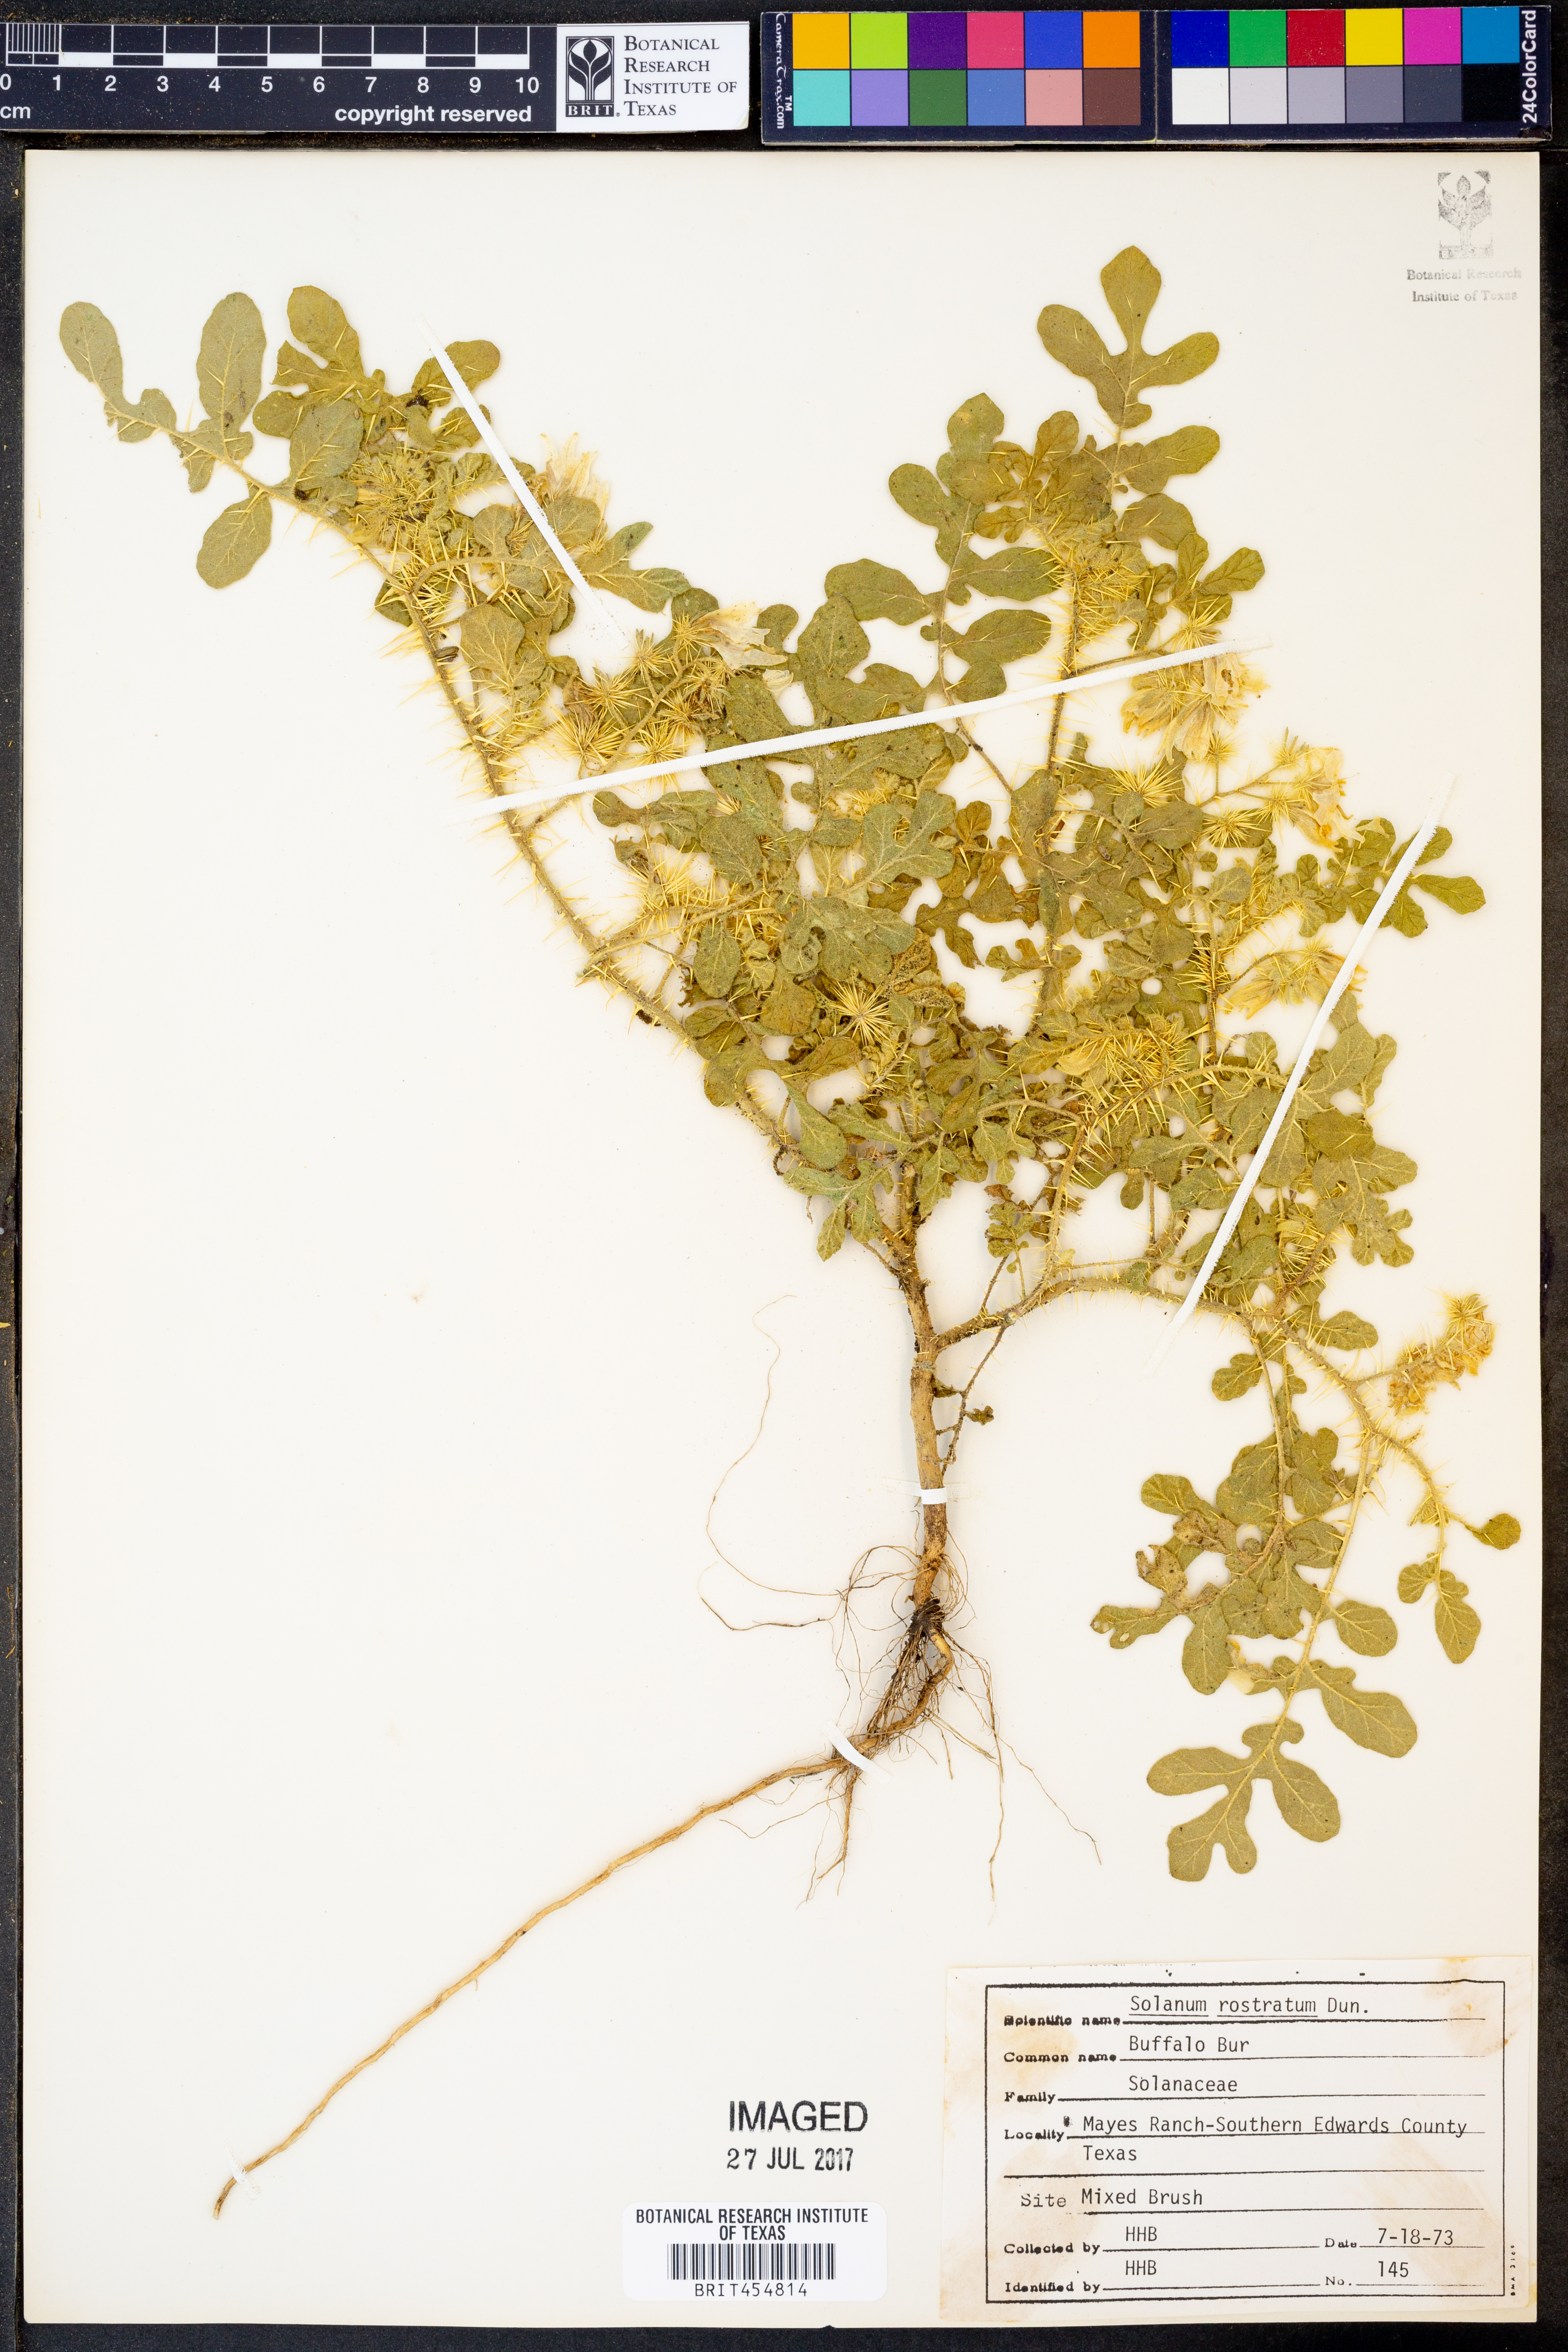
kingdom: Plantae
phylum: Tracheophyta
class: Magnoliopsida
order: Solanales
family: Solanaceae
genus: Solanum
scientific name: Solanum angustifolium
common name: Buffalobur nightshade
